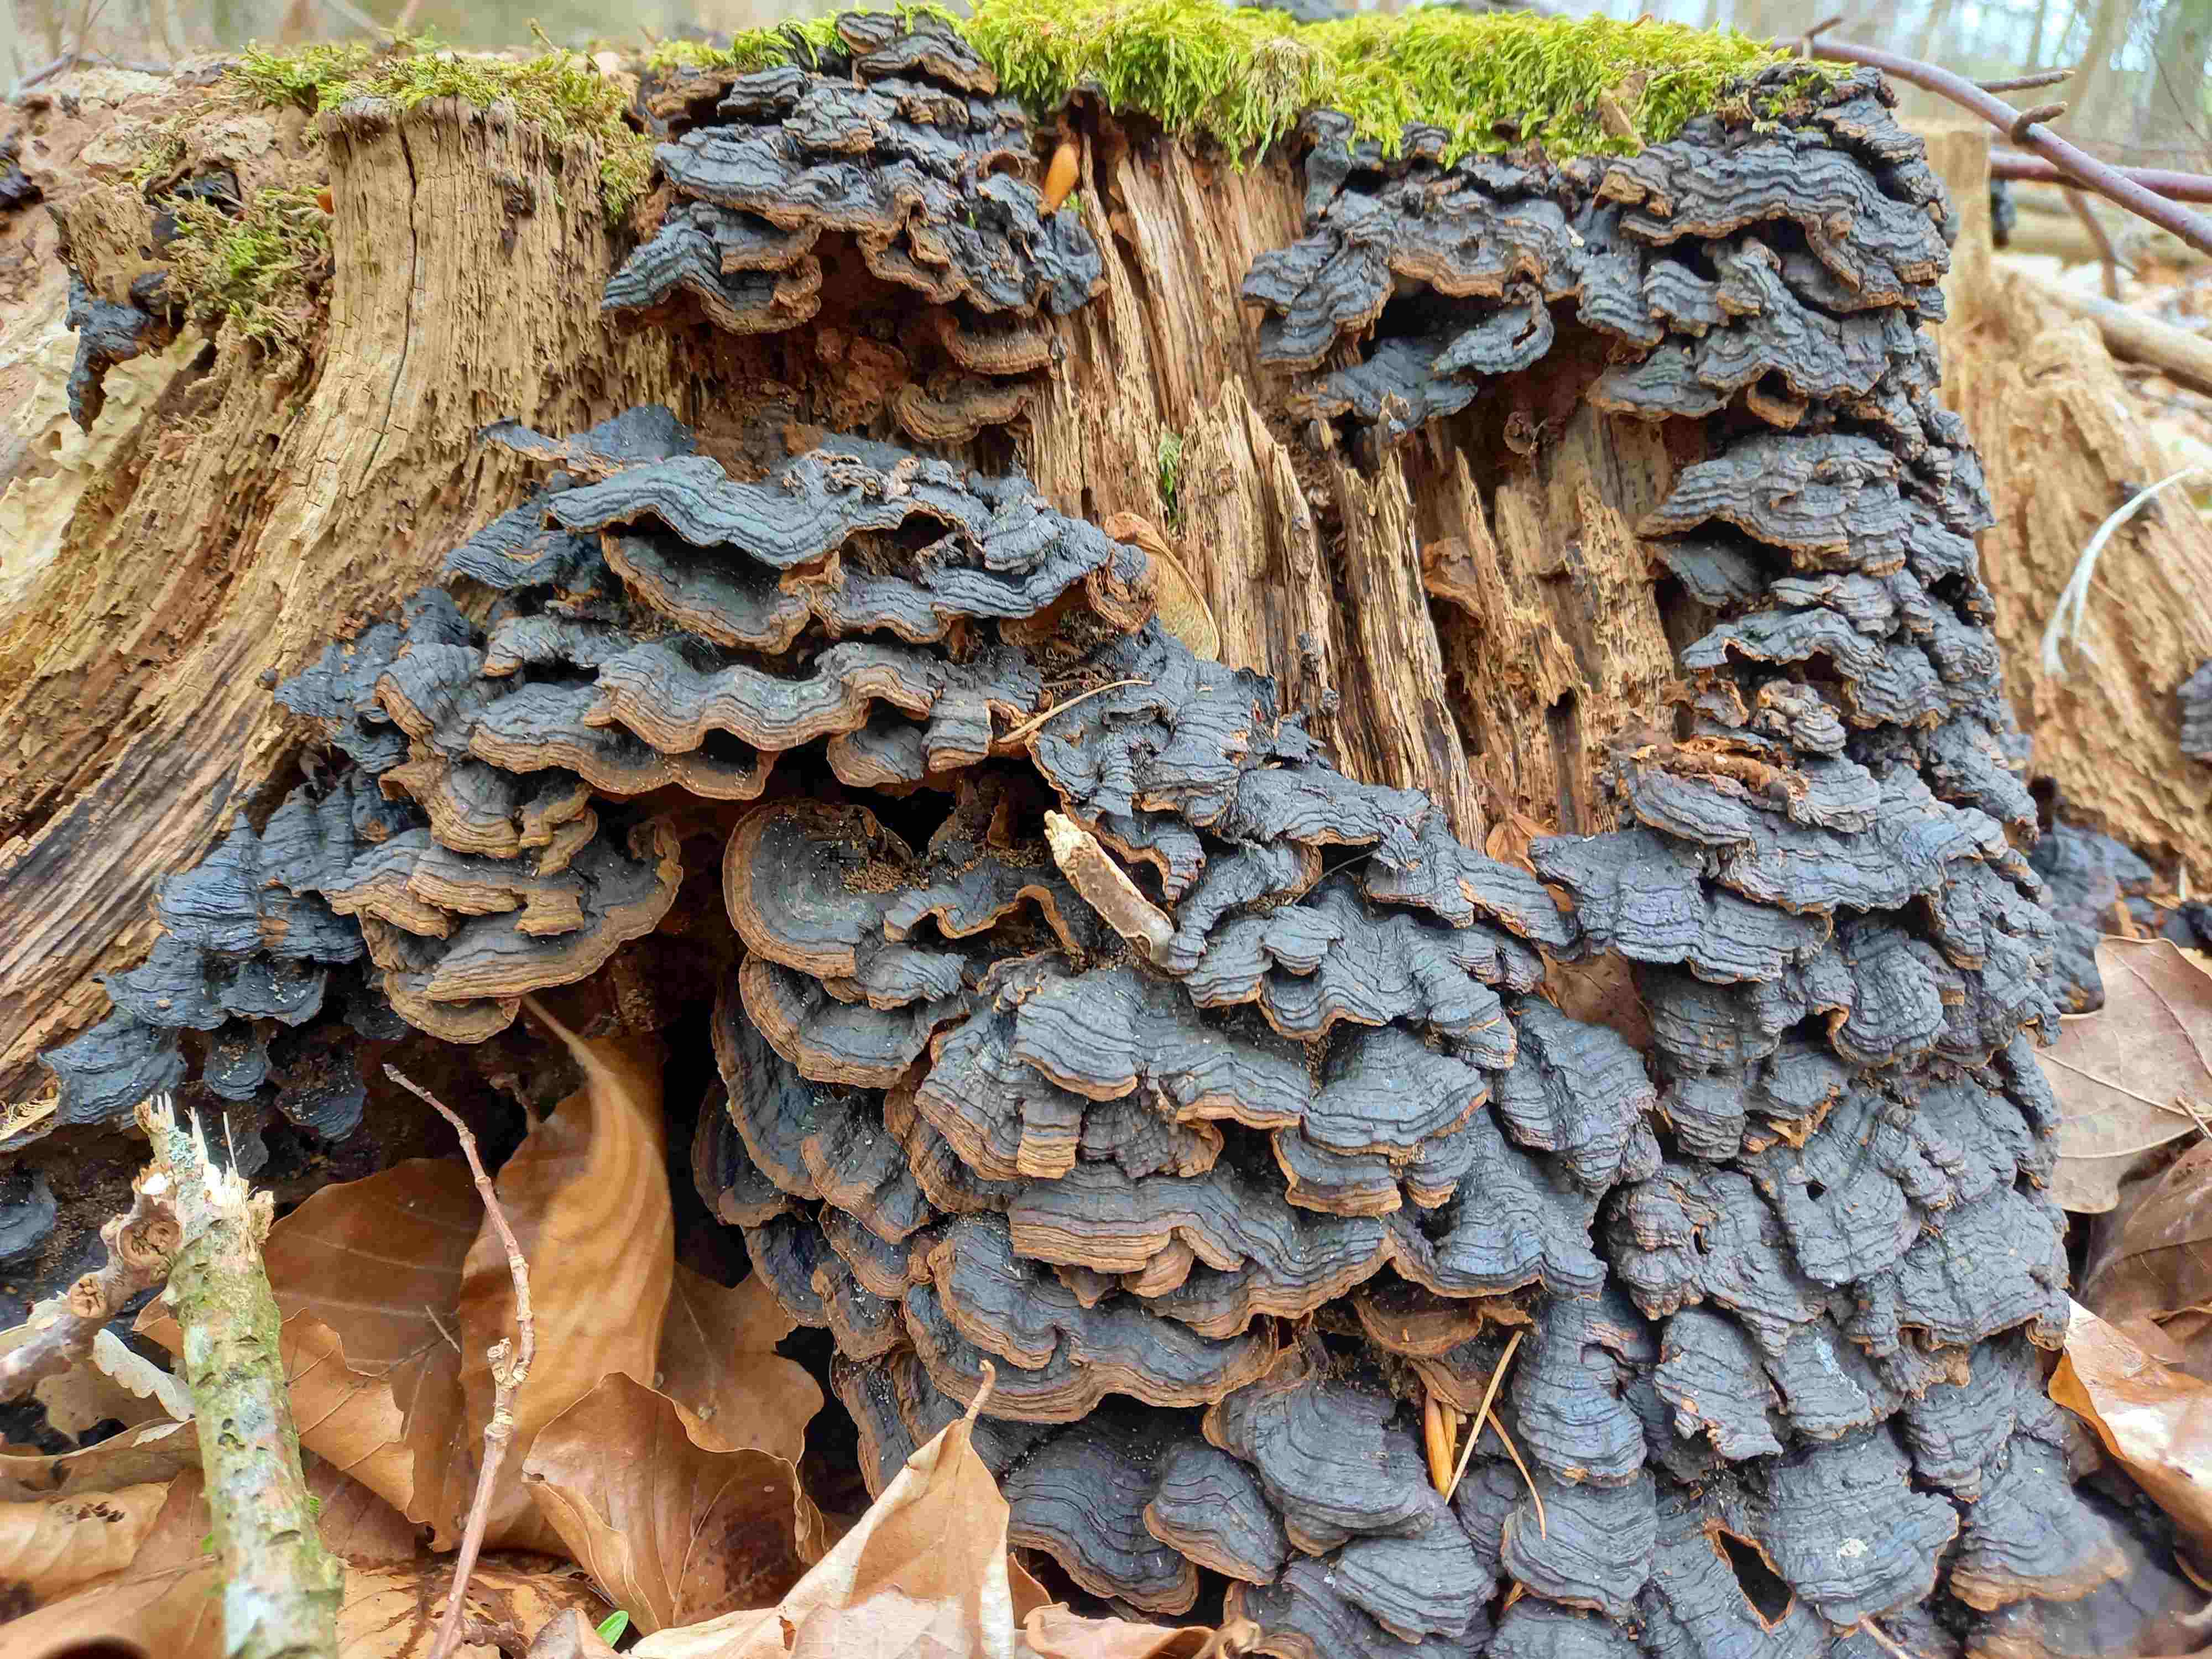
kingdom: Fungi
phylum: Basidiomycota
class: Agaricomycetes
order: Hymenochaetales
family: Hymenochaetaceae
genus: Hymenochaete
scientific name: Hymenochaete rubiginosa
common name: stiv ruslædersvamp
